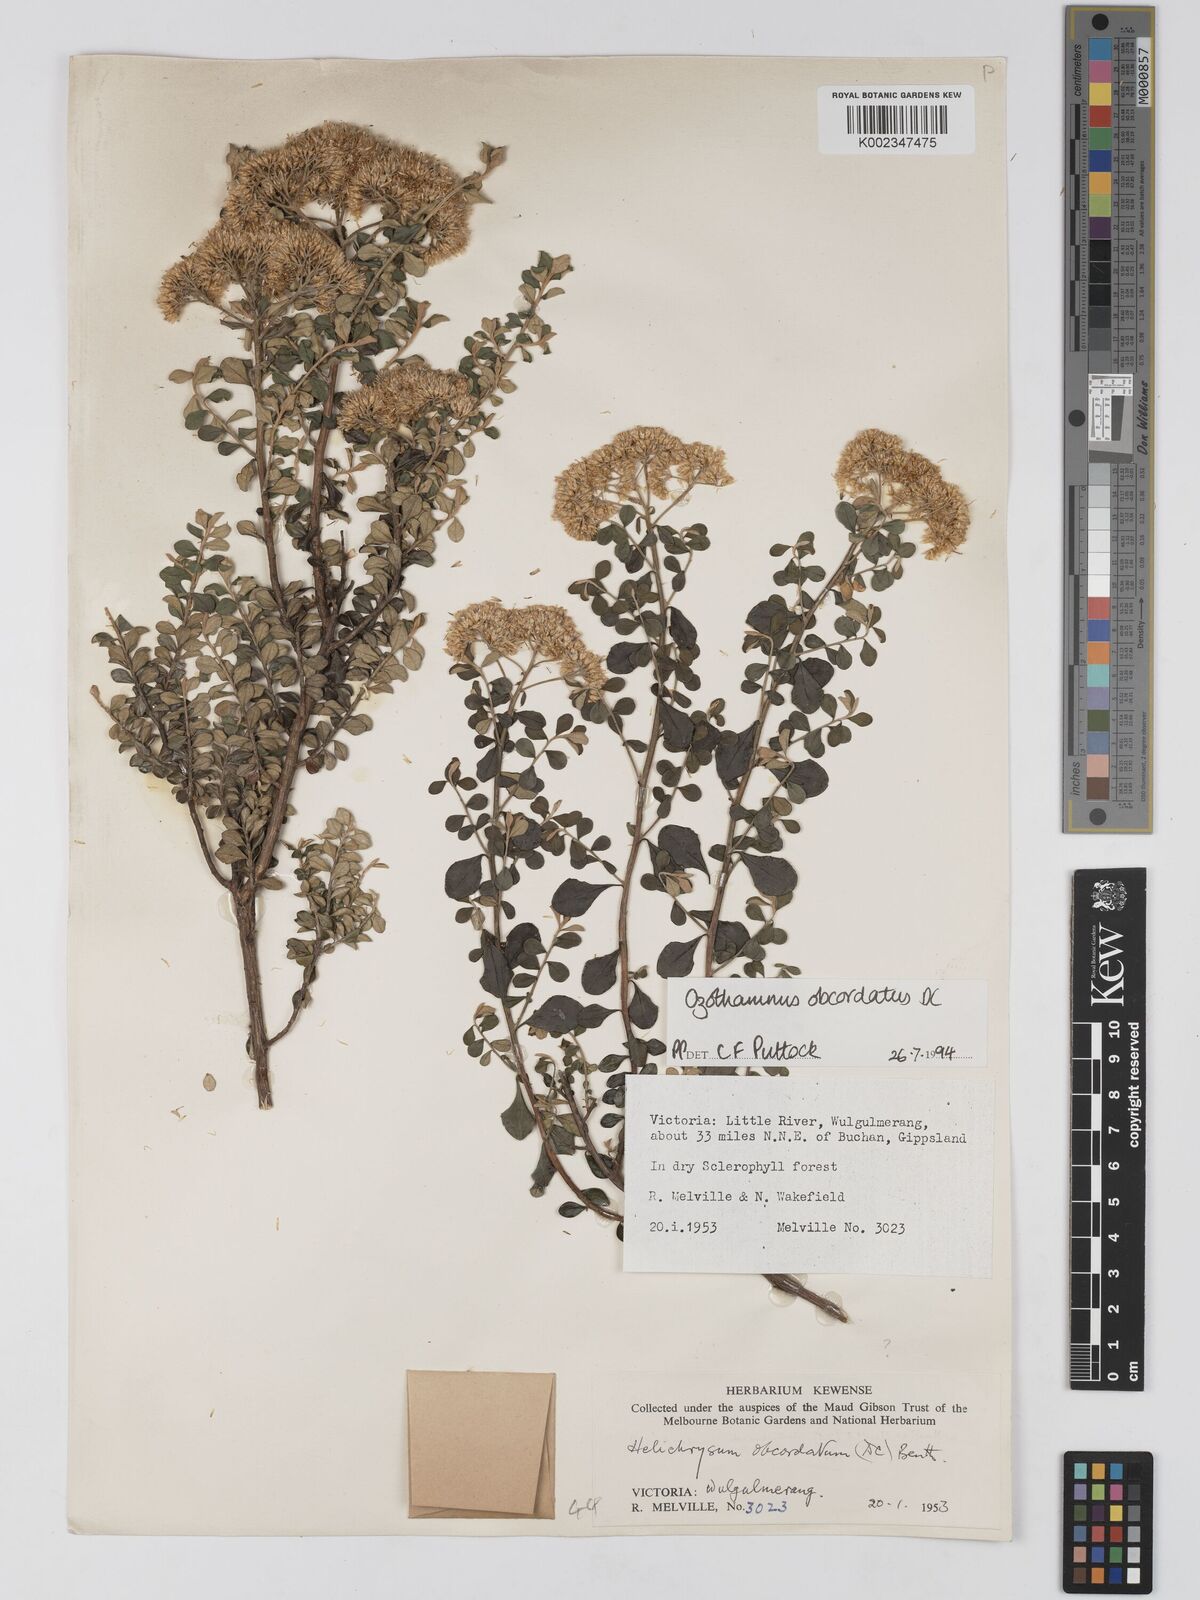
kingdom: Plantae
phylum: Tracheophyta
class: Magnoliopsida
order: Asterales
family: Asteraceae
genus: Ozothamnus
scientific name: Ozothamnus
